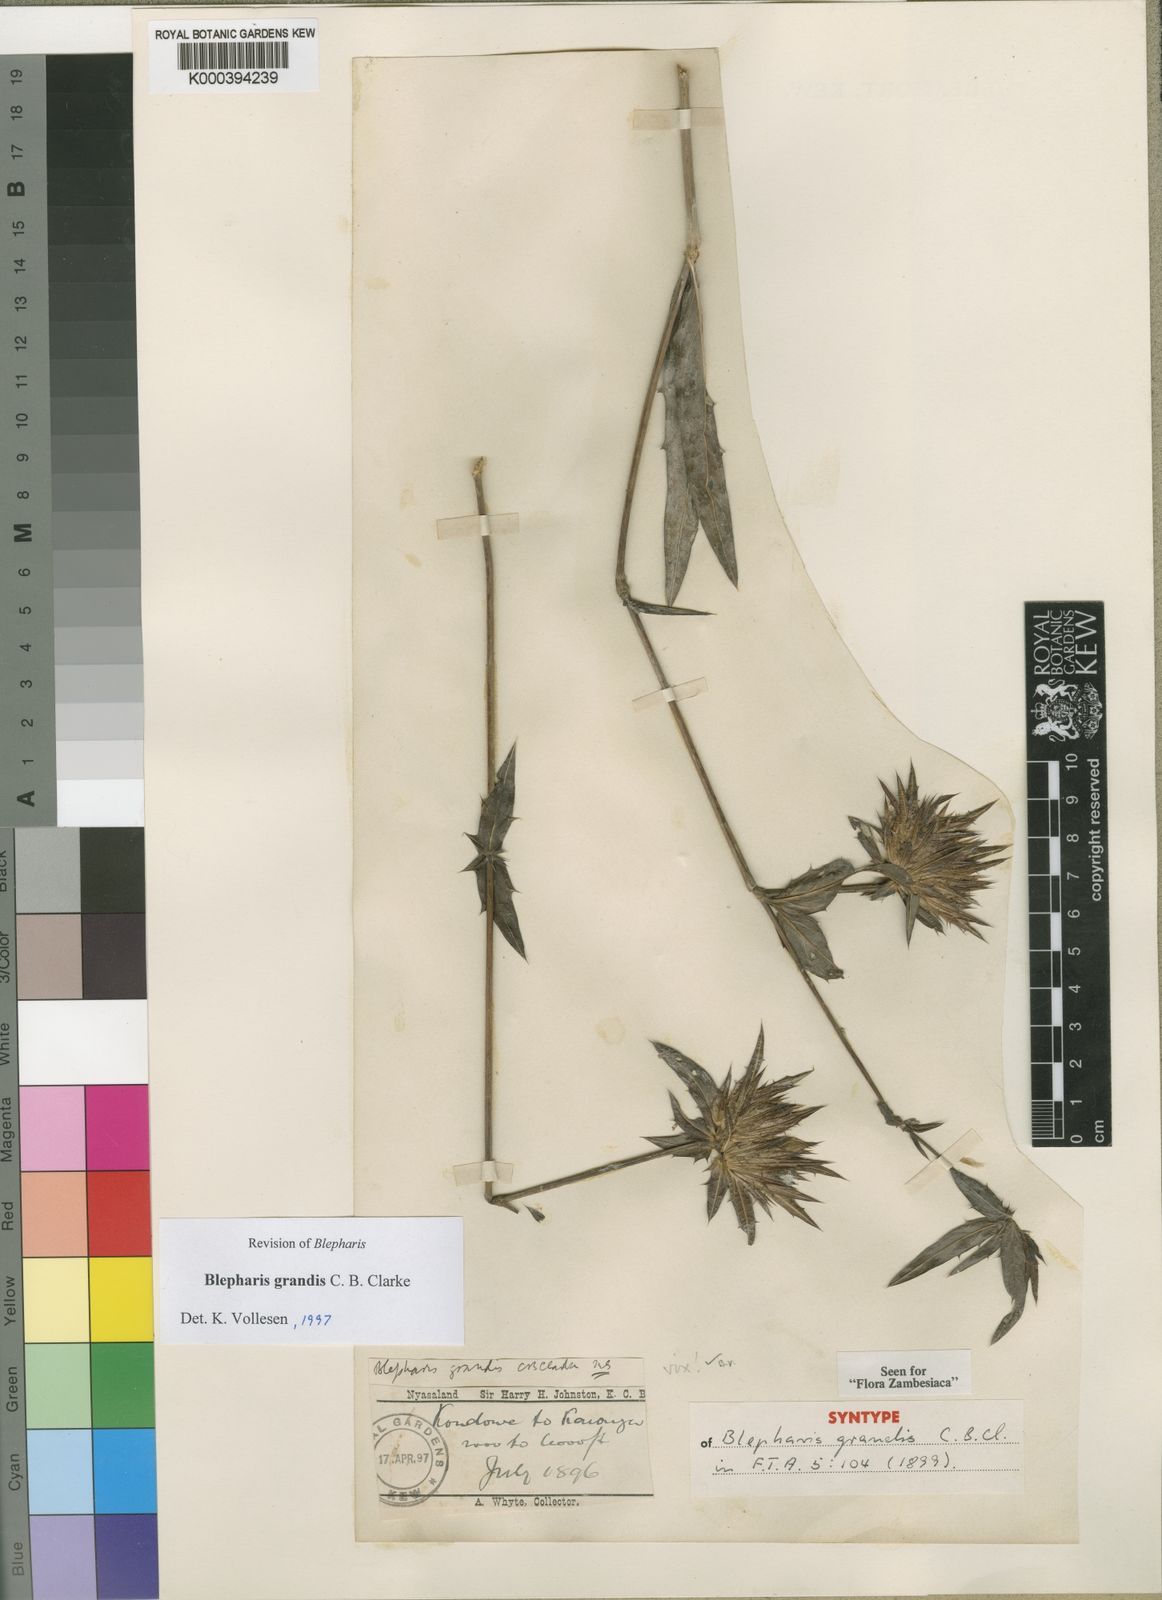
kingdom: Plantae
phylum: Tracheophyta
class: Magnoliopsida
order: Lamiales
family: Acanthaceae
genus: Blepharis
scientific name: Blepharis grandis
